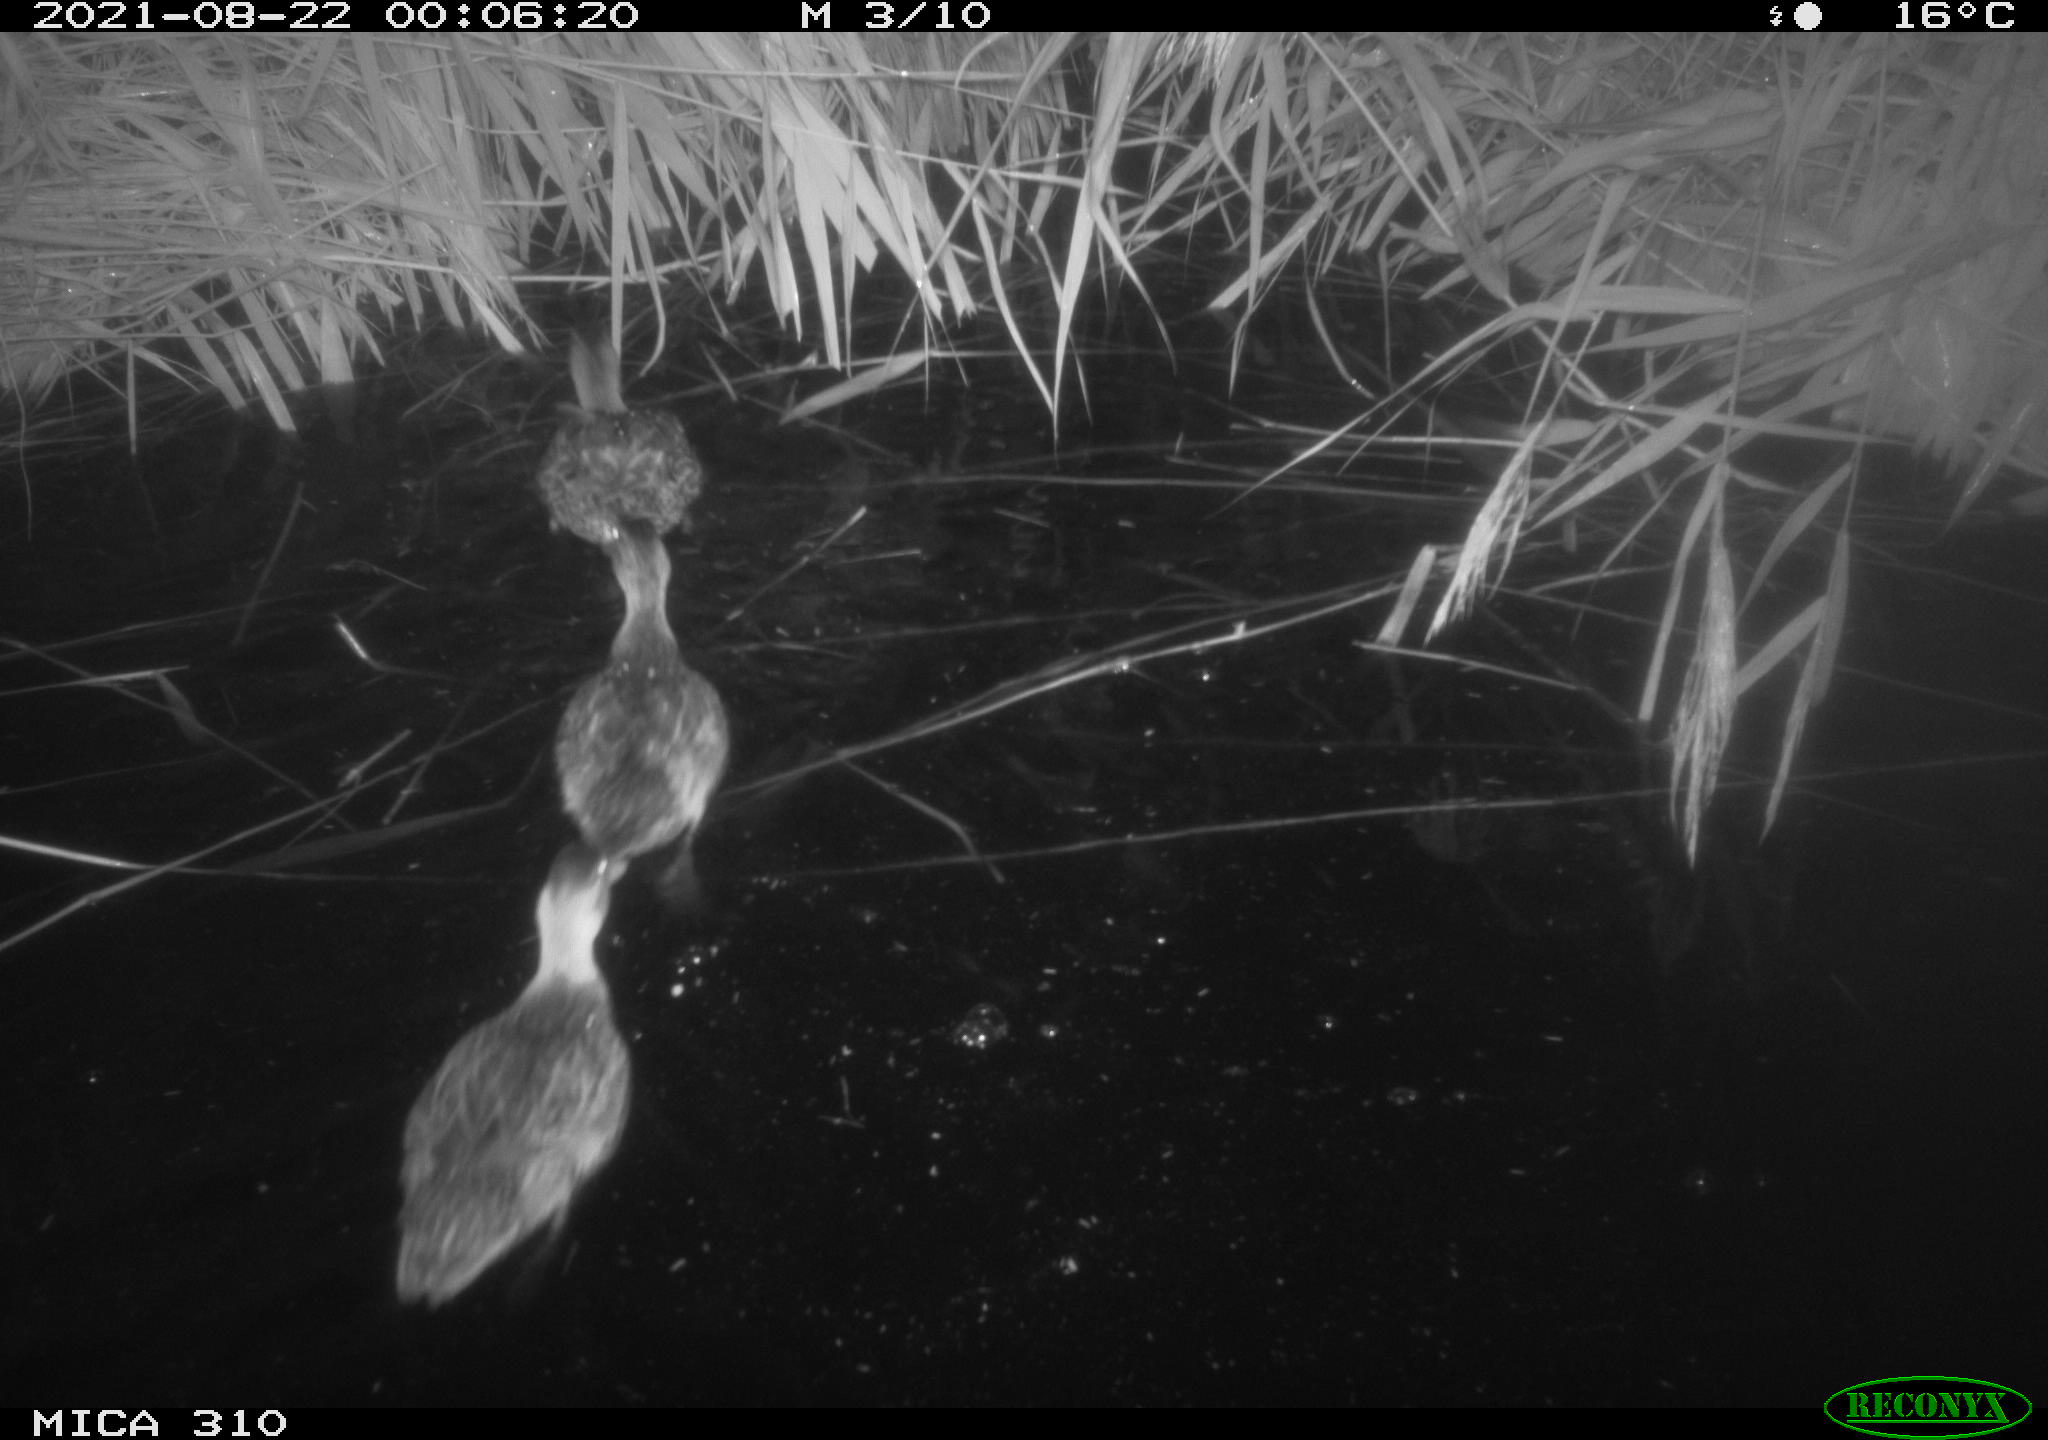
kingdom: Animalia
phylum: Chordata
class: Aves
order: Anseriformes
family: Anatidae
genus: Anas
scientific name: Anas platyrhynchos
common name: Mallard
